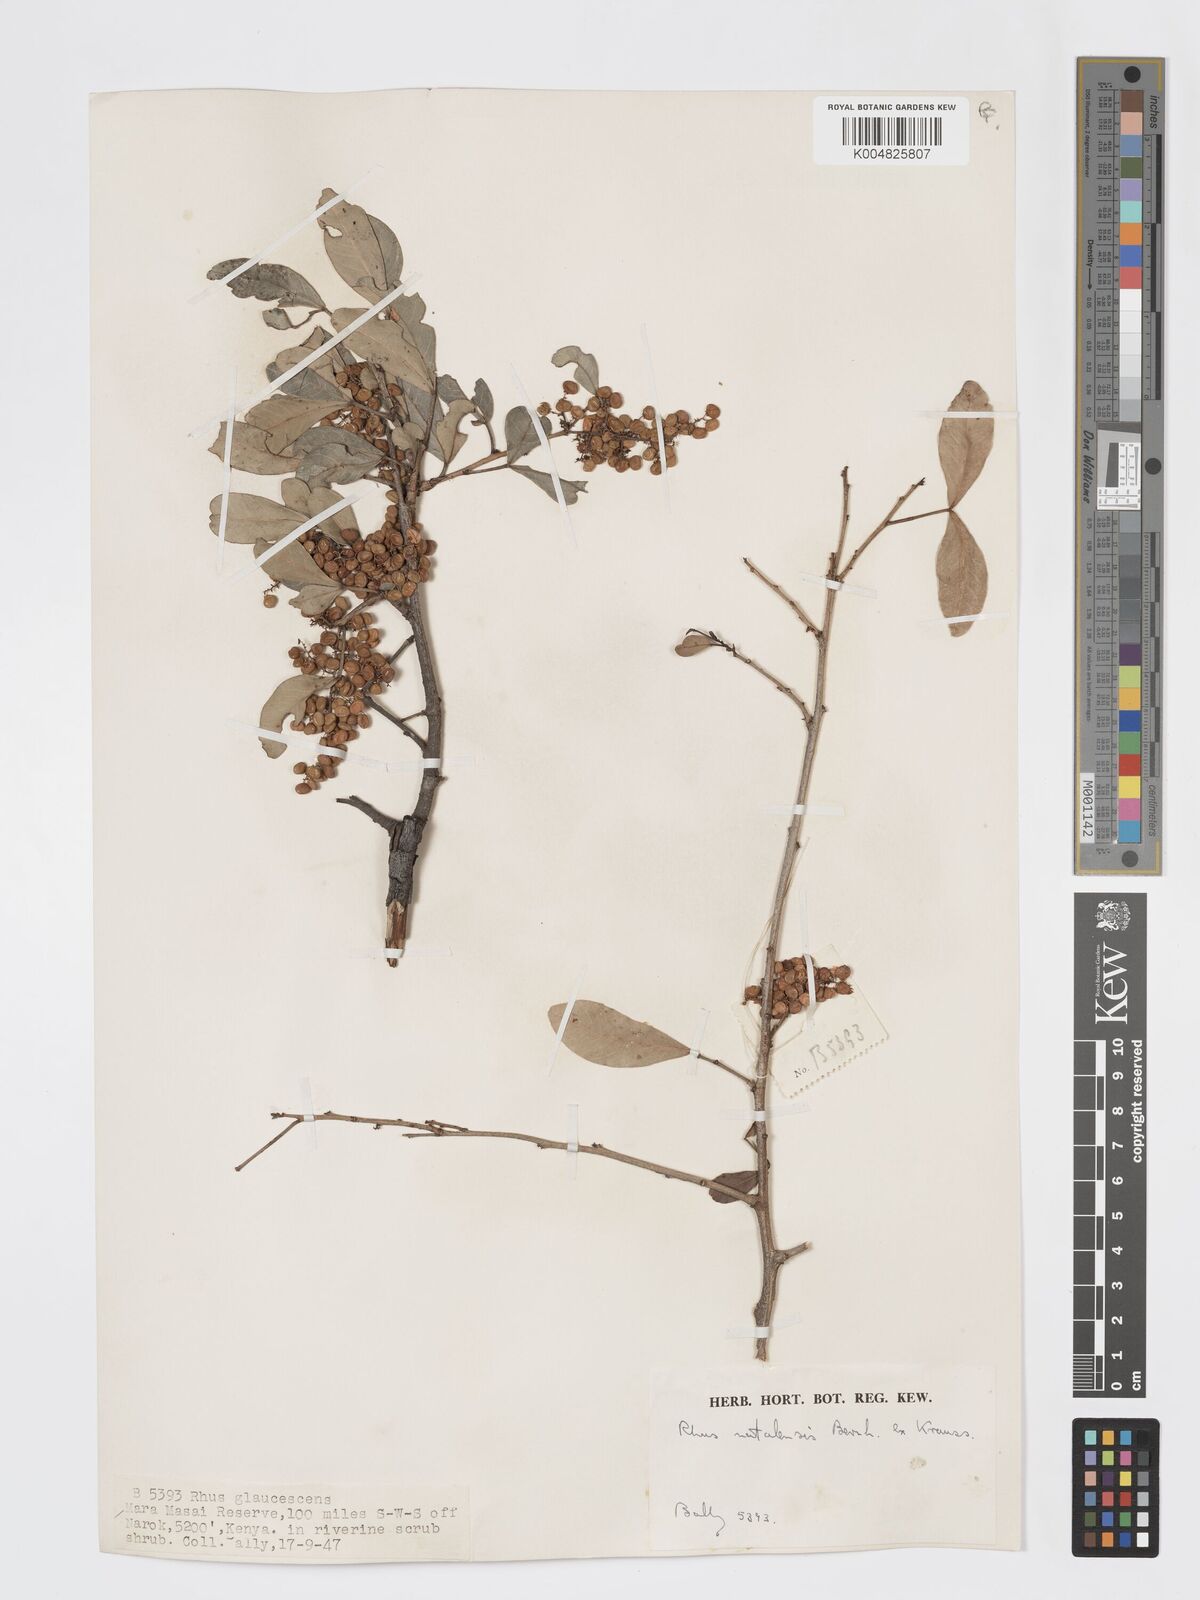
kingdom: Plantae
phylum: Tracheophyta
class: Magnoliopsida
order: Sapindales
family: Anacardiaceae
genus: Searsia
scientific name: Searsia natalensis
